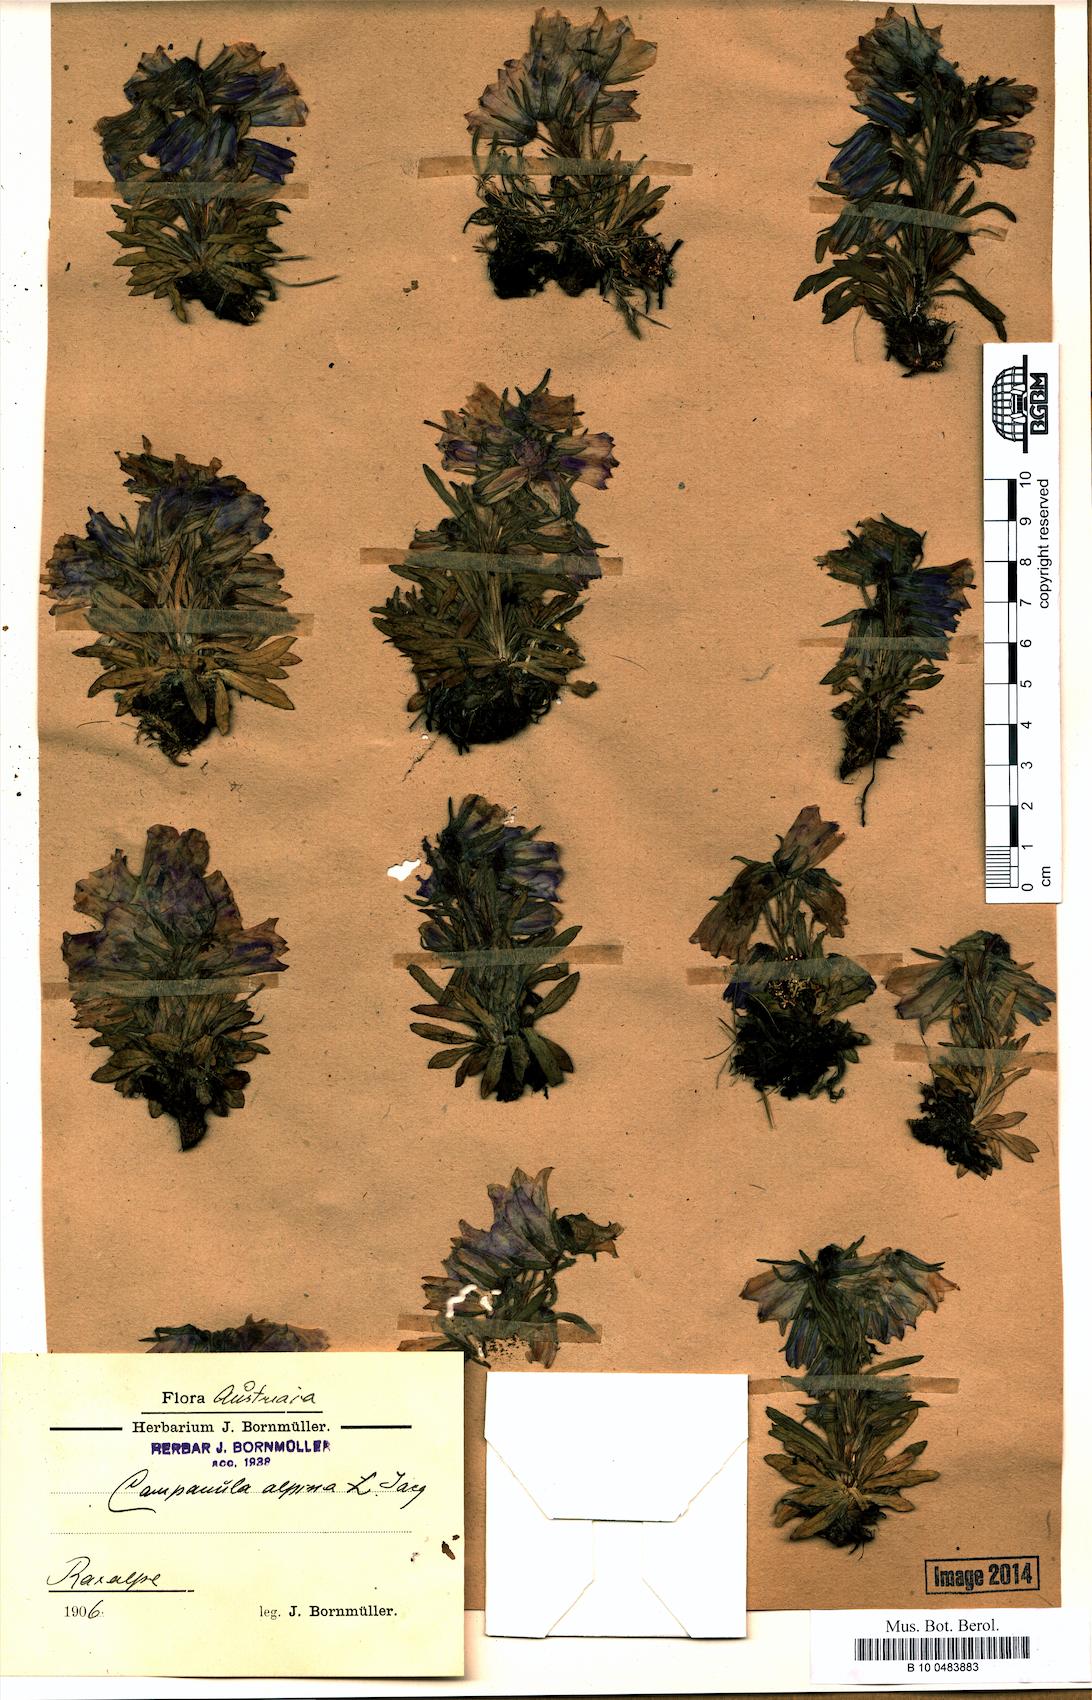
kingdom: Plantae
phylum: Tracheophyta
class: Magnoliopsida
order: Asterales
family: Campanulaceae
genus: Campanula
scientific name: Campanula alpina
